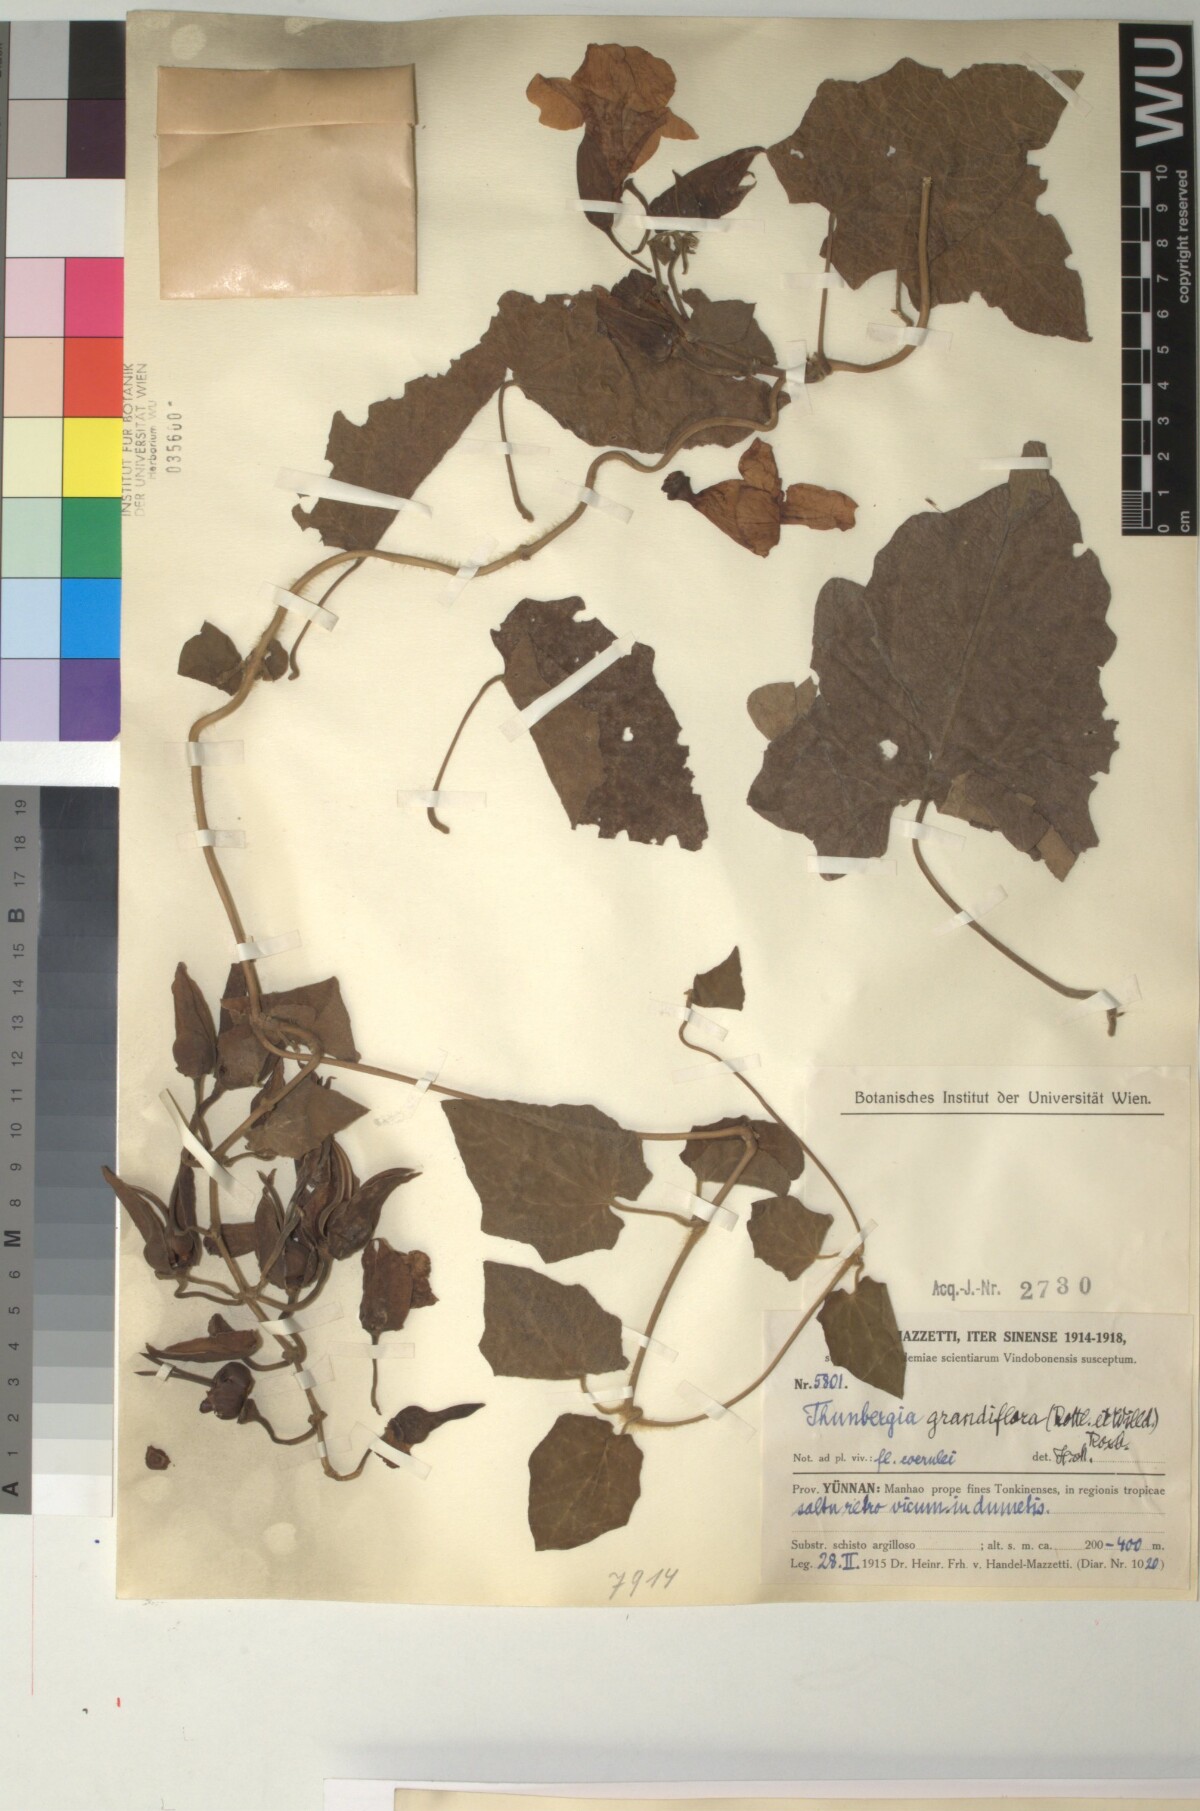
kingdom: Plantae
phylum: Tracheophyta
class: Magnoliopsida
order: Lamiales
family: Acanthaceae
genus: Thunbergia
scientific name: Thunbergia grandiflora
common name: Bengal trumpet
